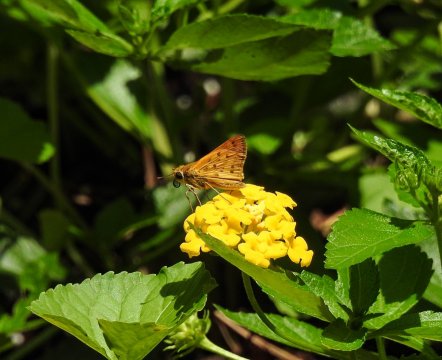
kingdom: Animalia
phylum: Arthropoda
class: Insecta
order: Lepidoptera
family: Hesperiidae
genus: Hylephila
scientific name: Hylephila phyleus
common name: Fiery Skipper
